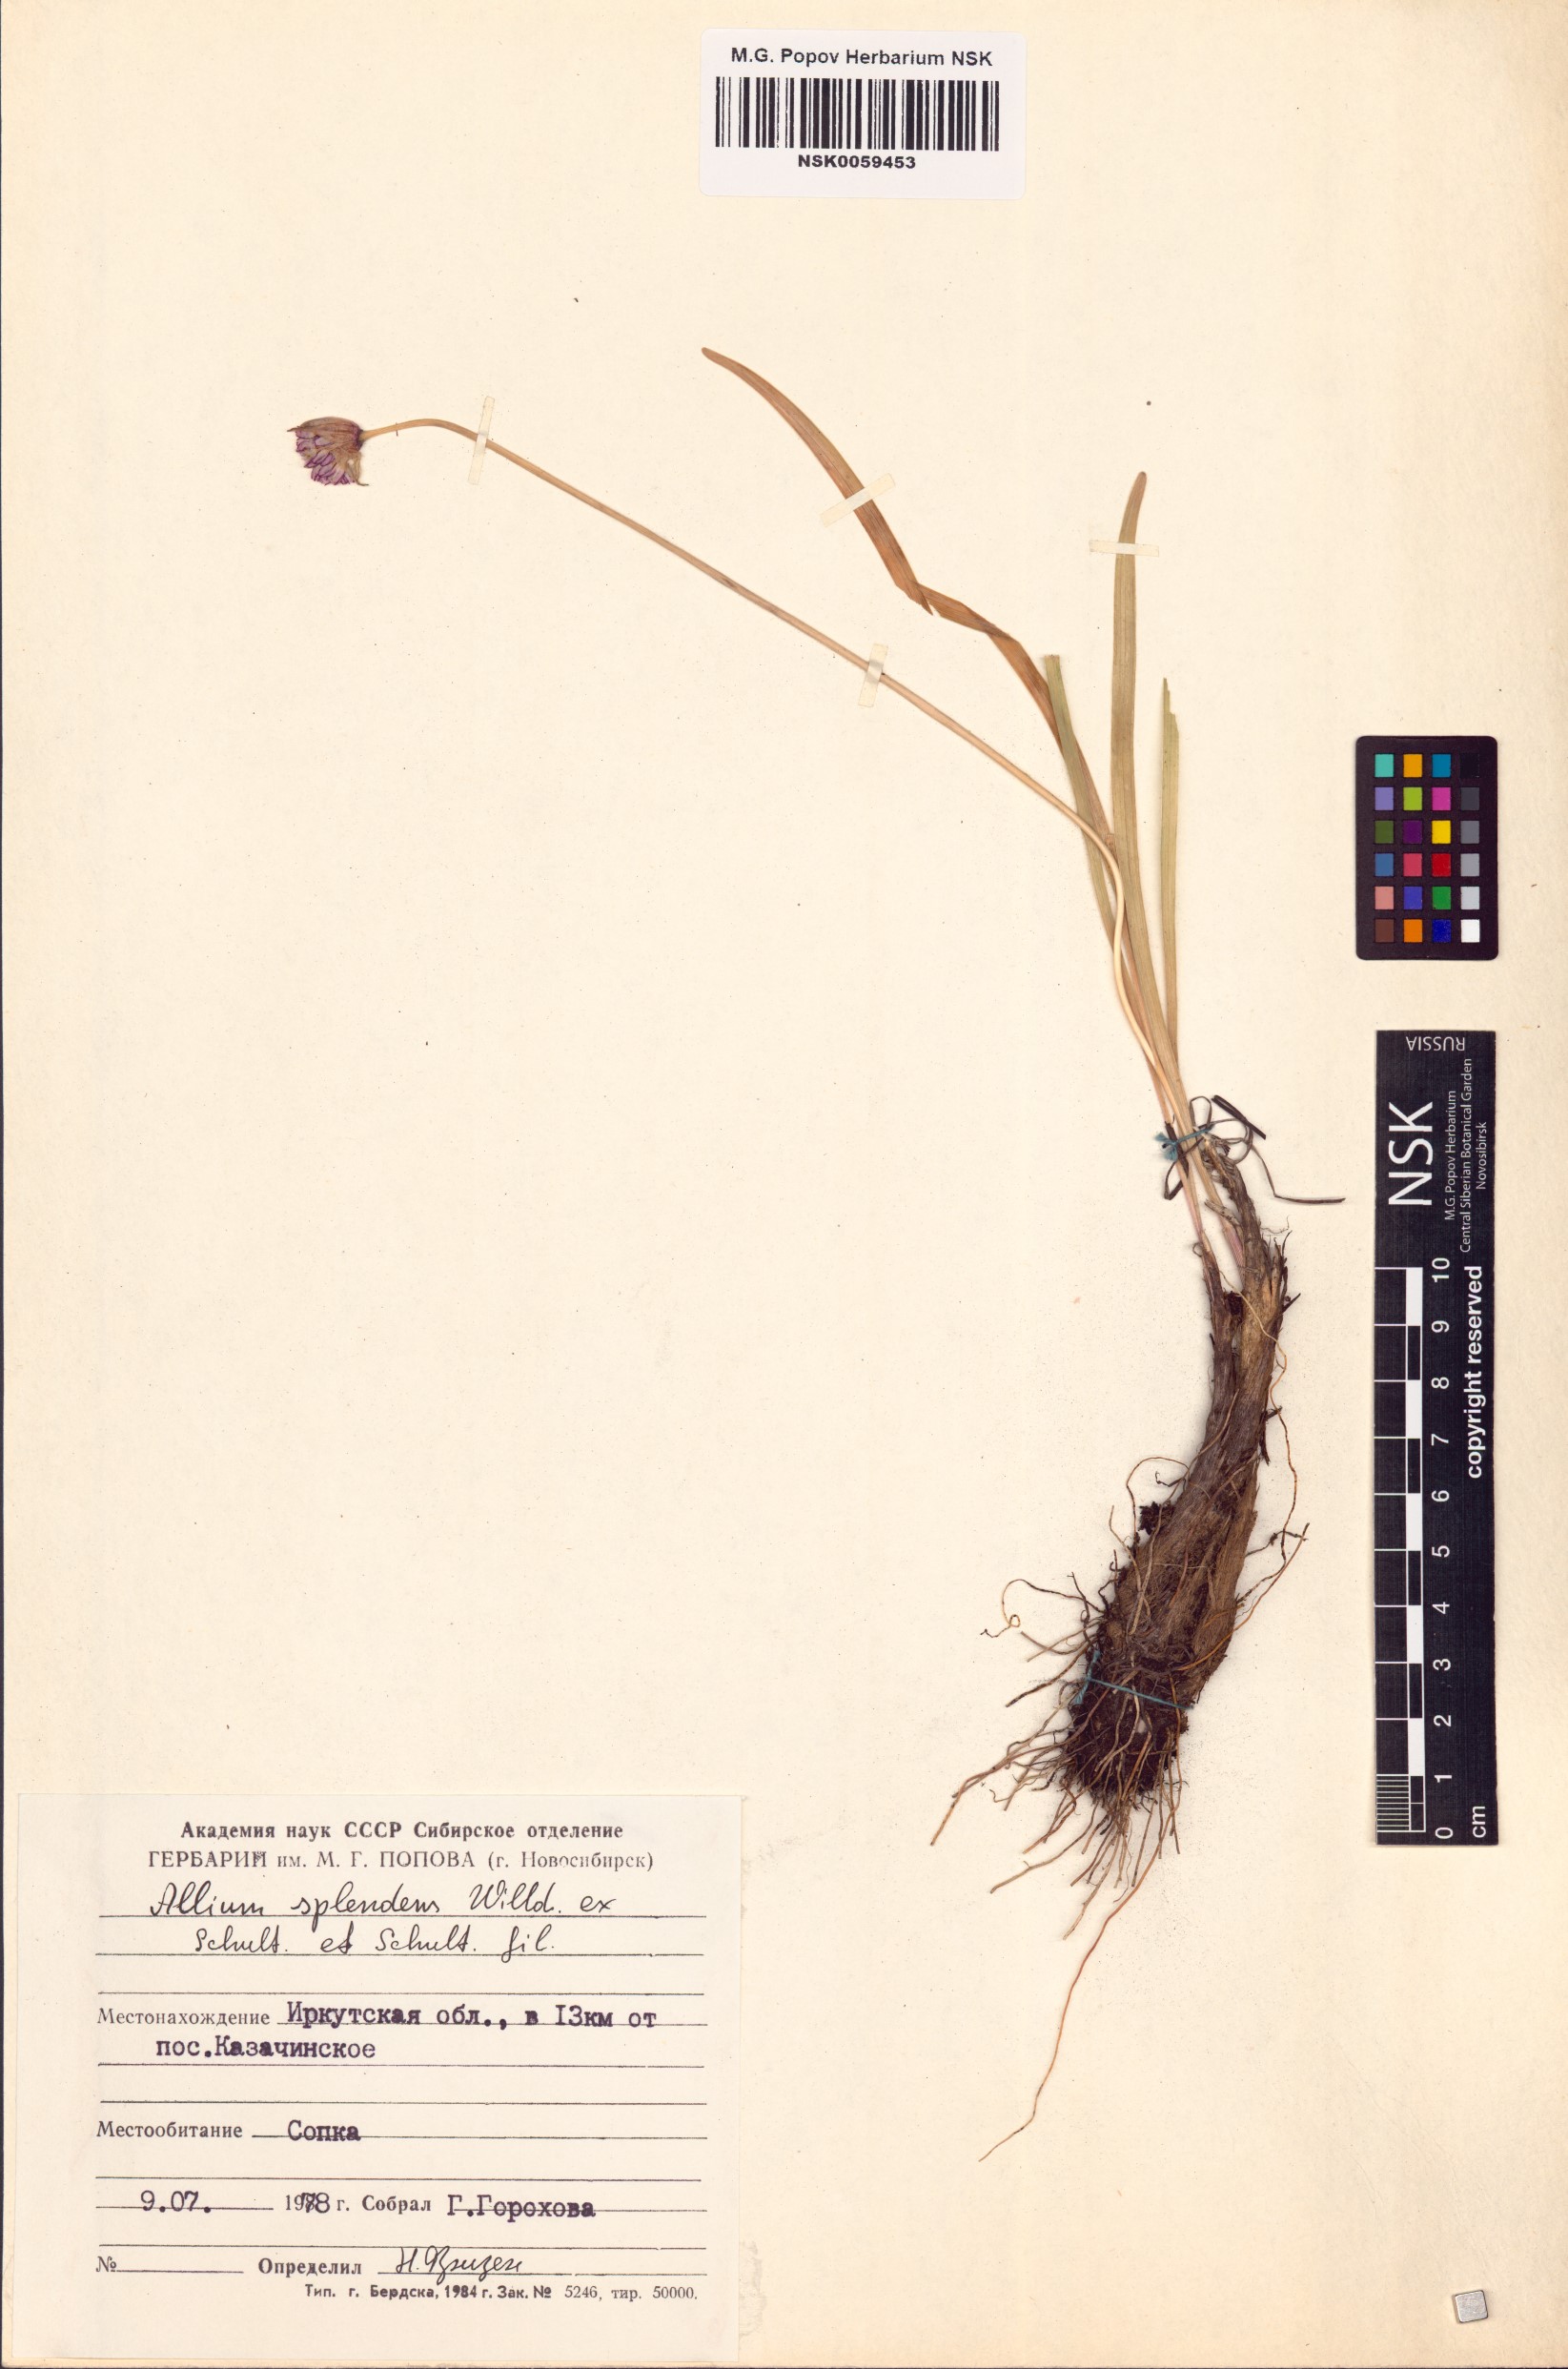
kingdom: Plantae
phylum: Tracheophyta
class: Liliopsida
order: Asparagales
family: Amaryllidaceae
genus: Allium
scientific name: Allium splendens
